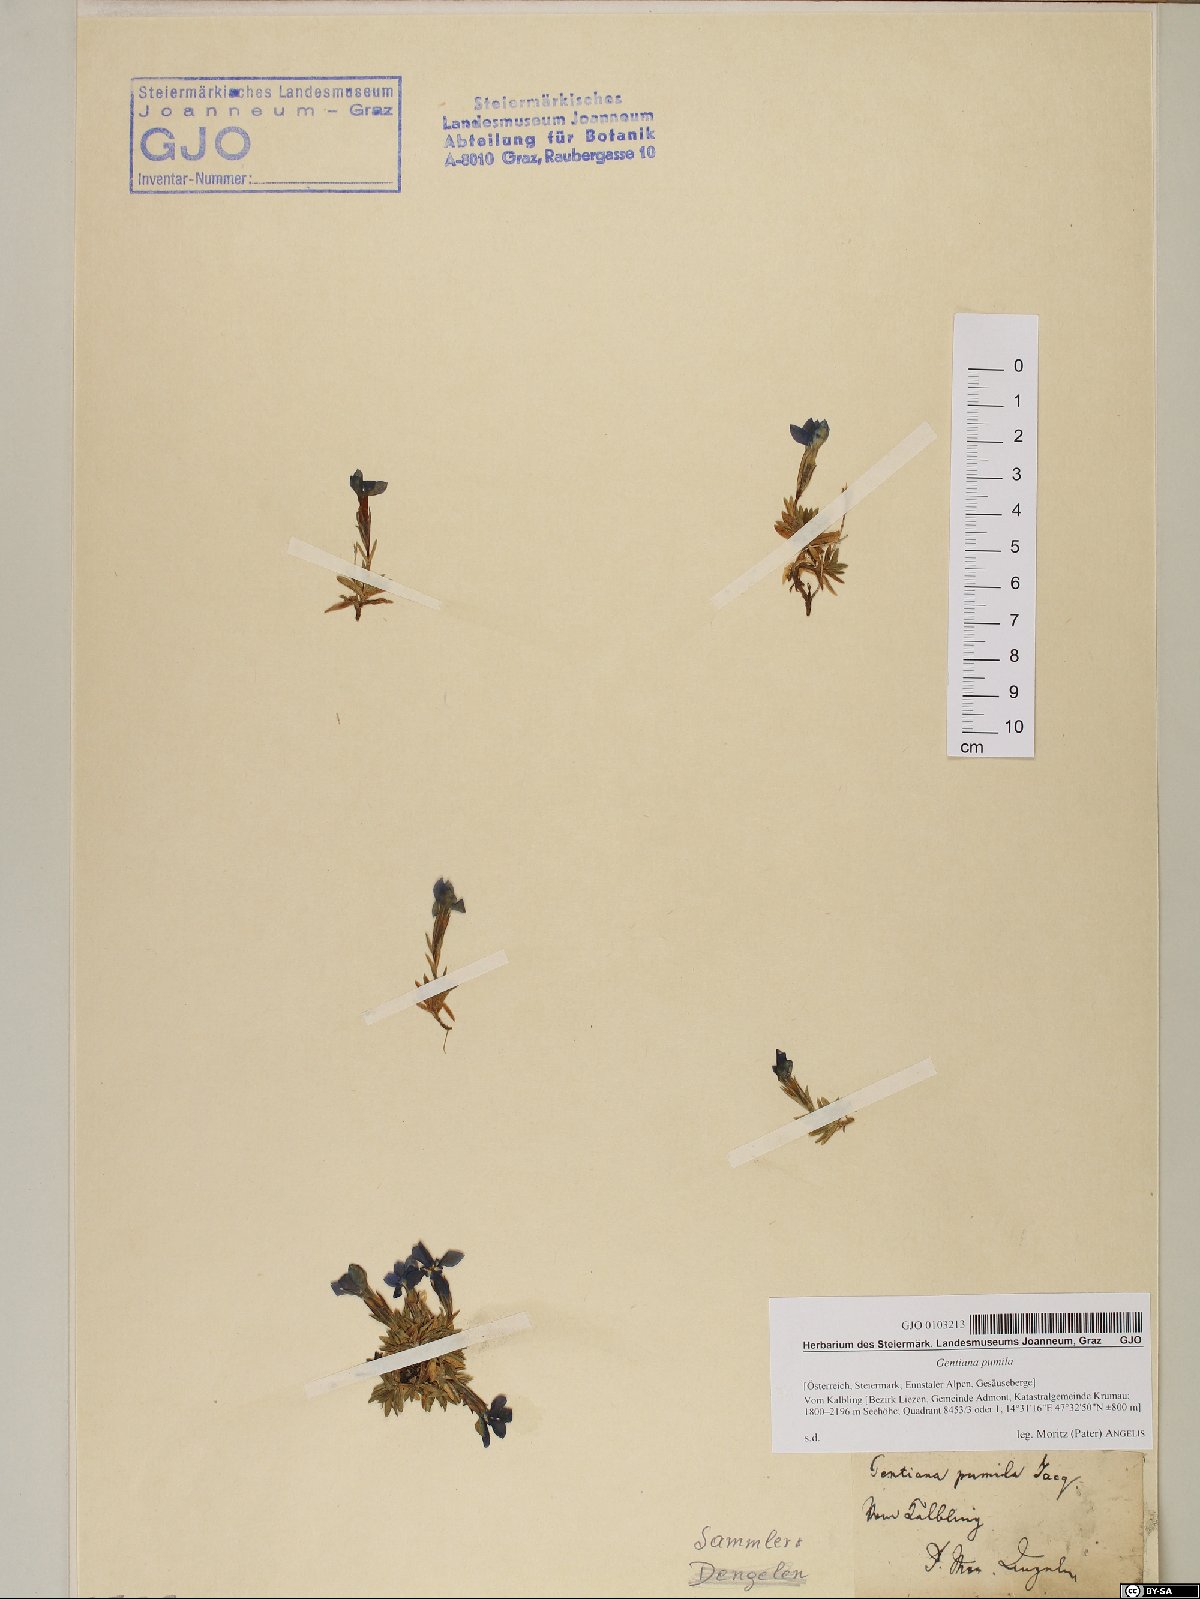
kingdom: Plantae
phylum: Tracheophyta
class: Magnoliopsida
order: Gentianales
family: Gentianaceae
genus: Gentiana
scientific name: Gentiana pumila
